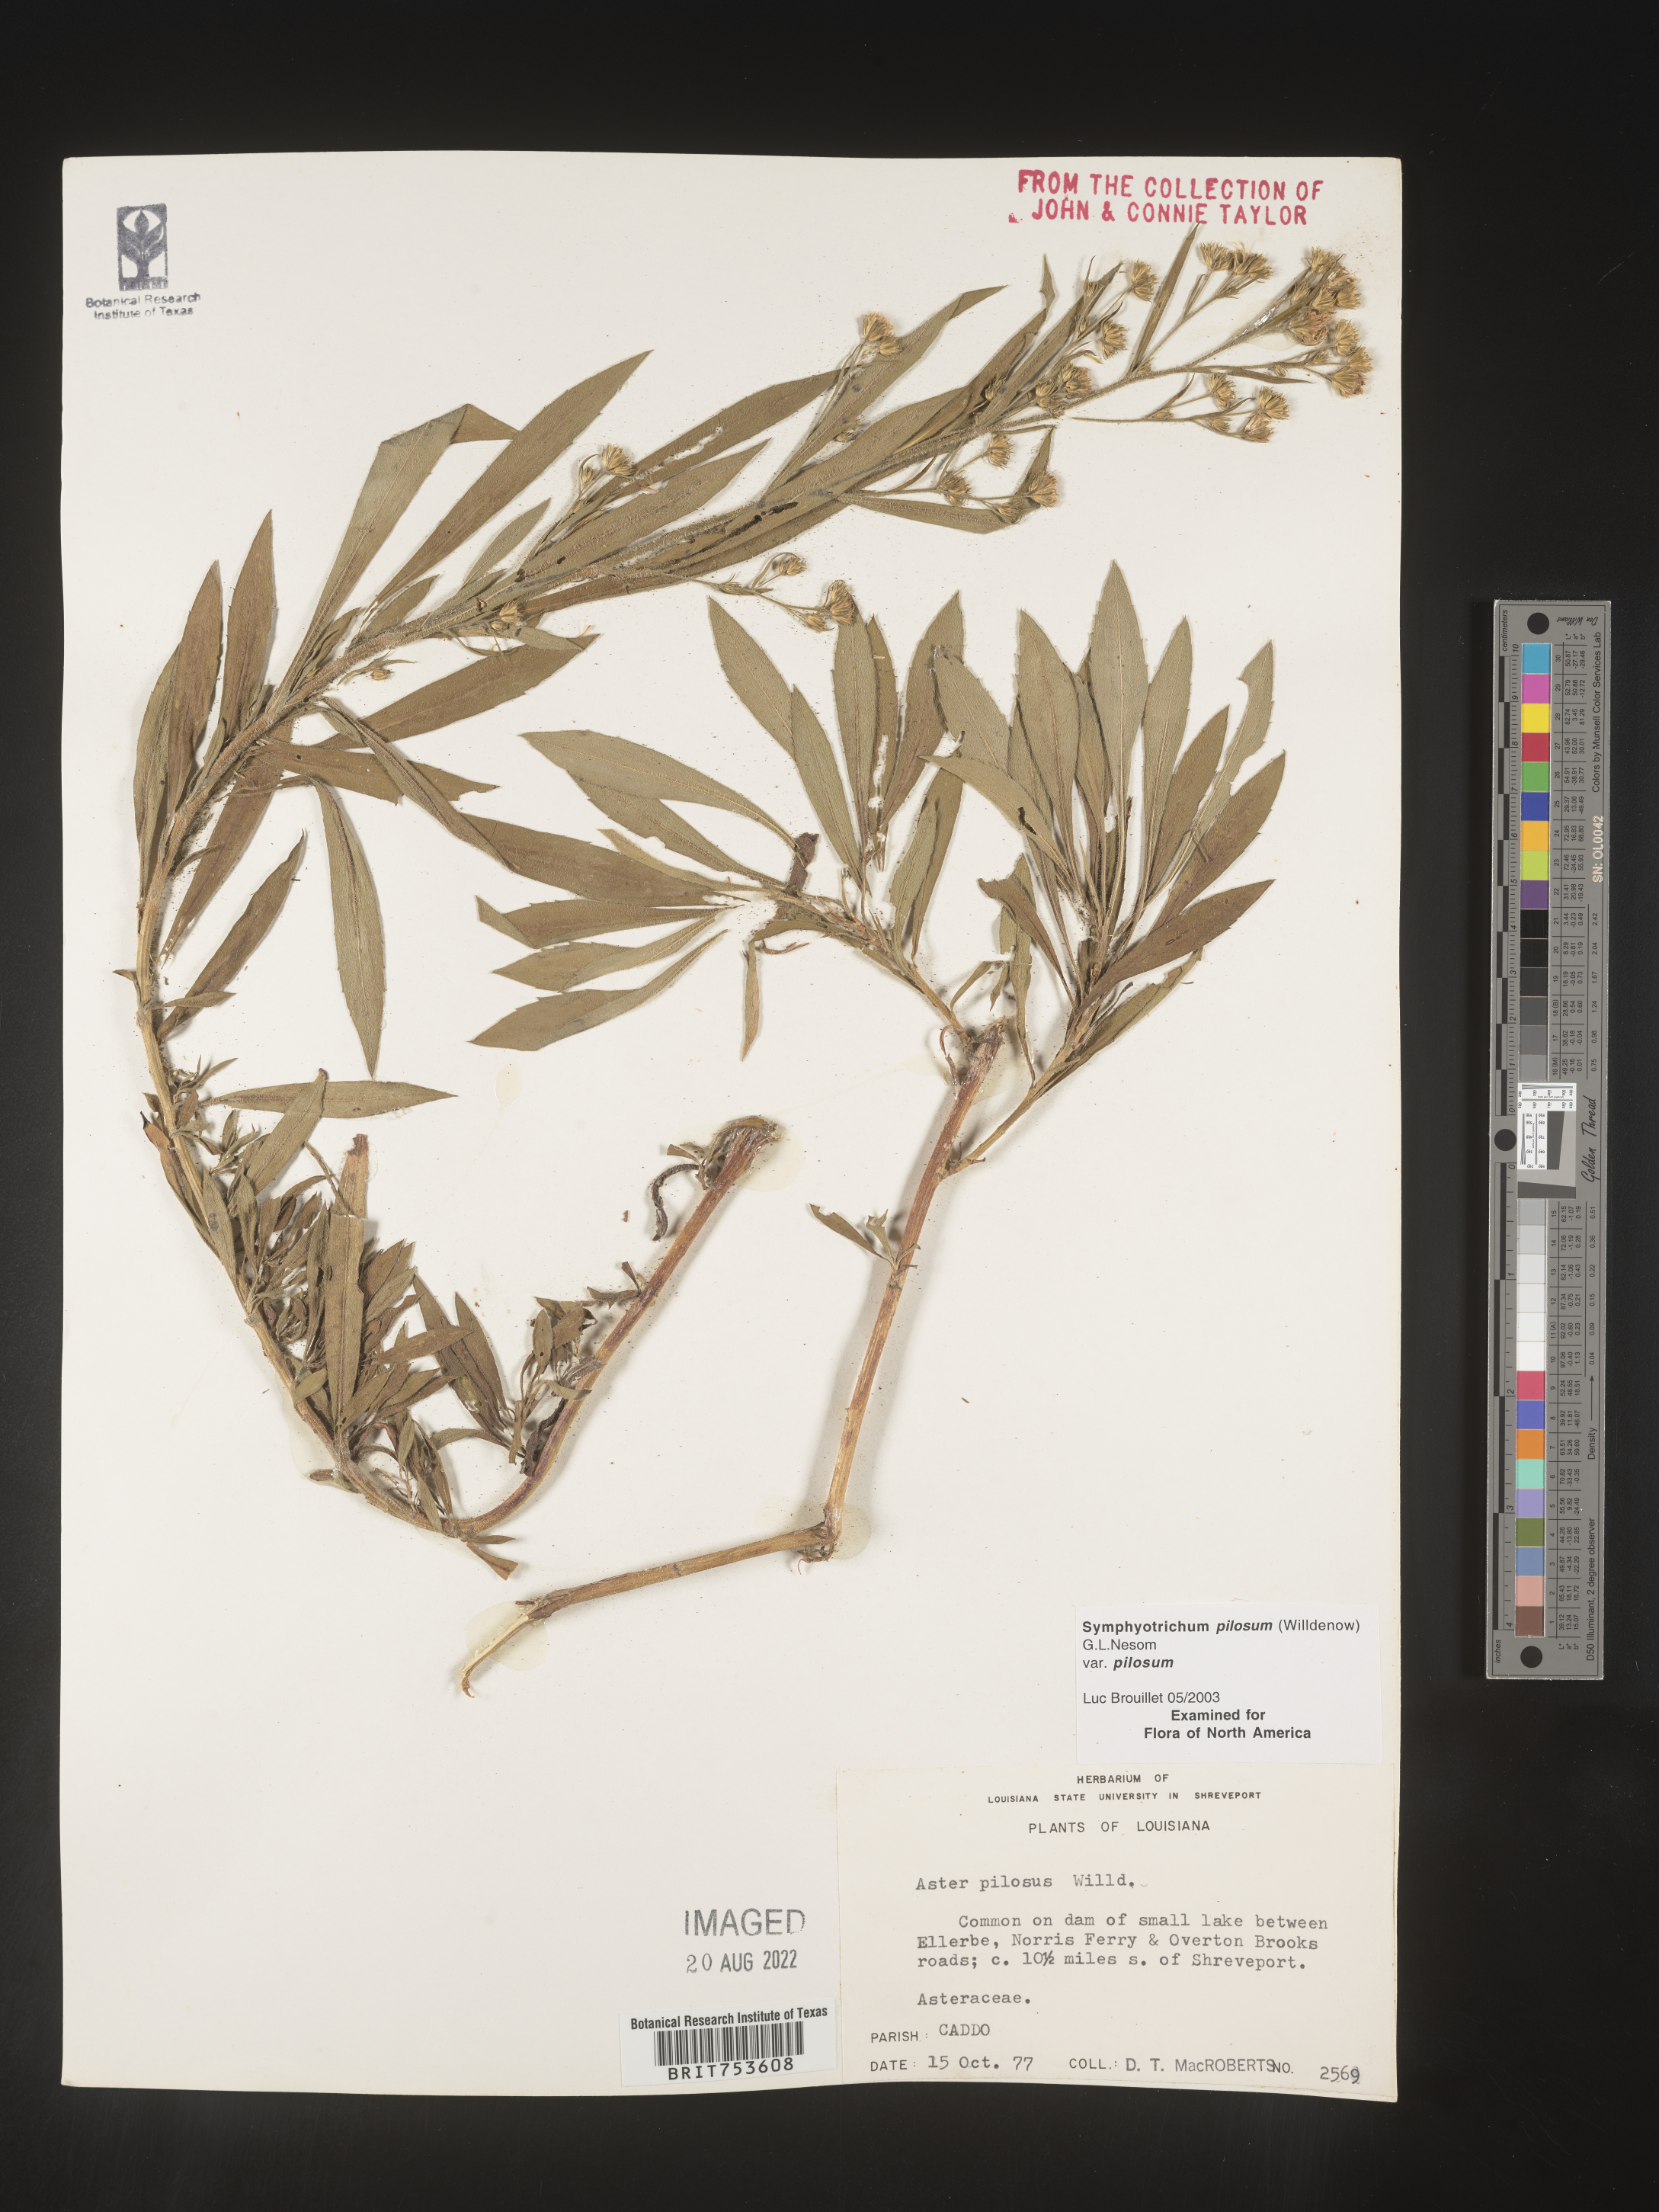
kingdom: Plantae
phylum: Tracheophyta
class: Magnoliopsida
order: Asterales
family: Asteraceae
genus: Symphyotrichum
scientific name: Symphyotrichum pilosum
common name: Awl aster
